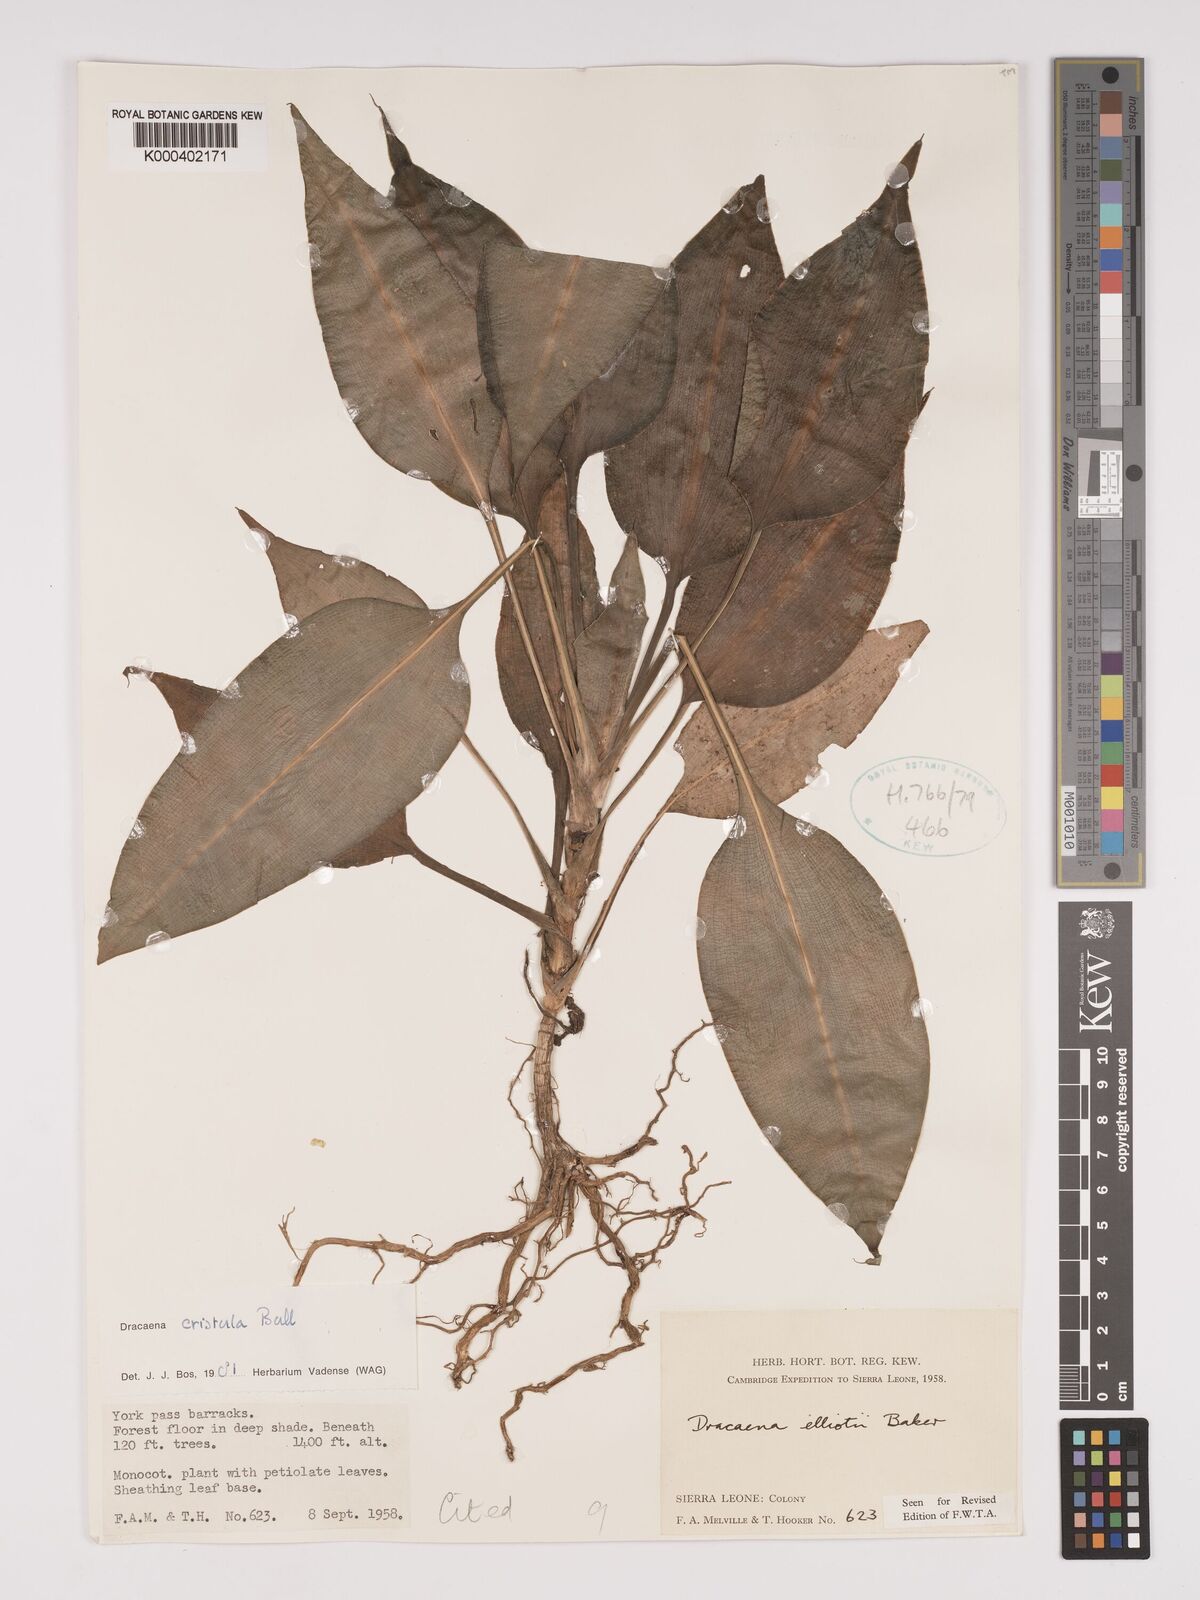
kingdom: Plantae
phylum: Tracheophyta
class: Liliopsida
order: Asparagales
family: Asparagaceae
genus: Dracaena
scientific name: Dracaena cristula
